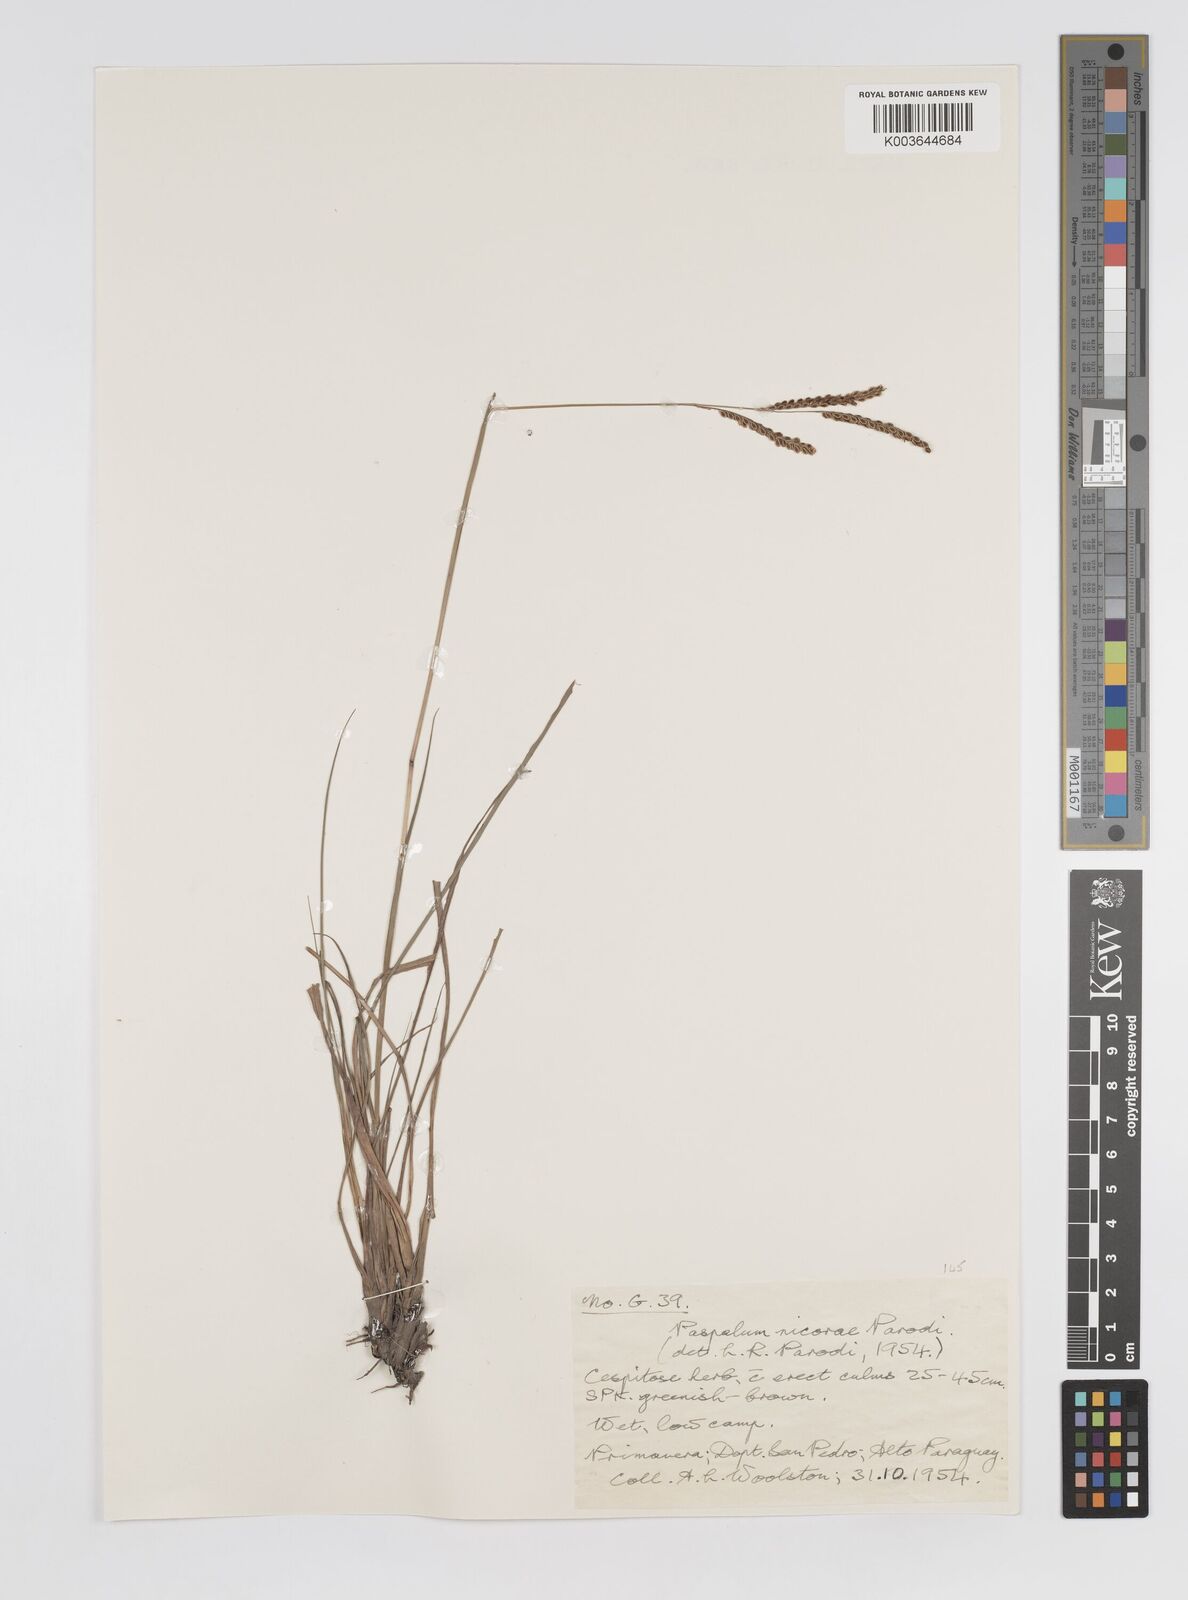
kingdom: Plantae
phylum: Tracheophyta
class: Liliopsida
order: Poales
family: Poaceae
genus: Paspalum
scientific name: Paspalum lepton
